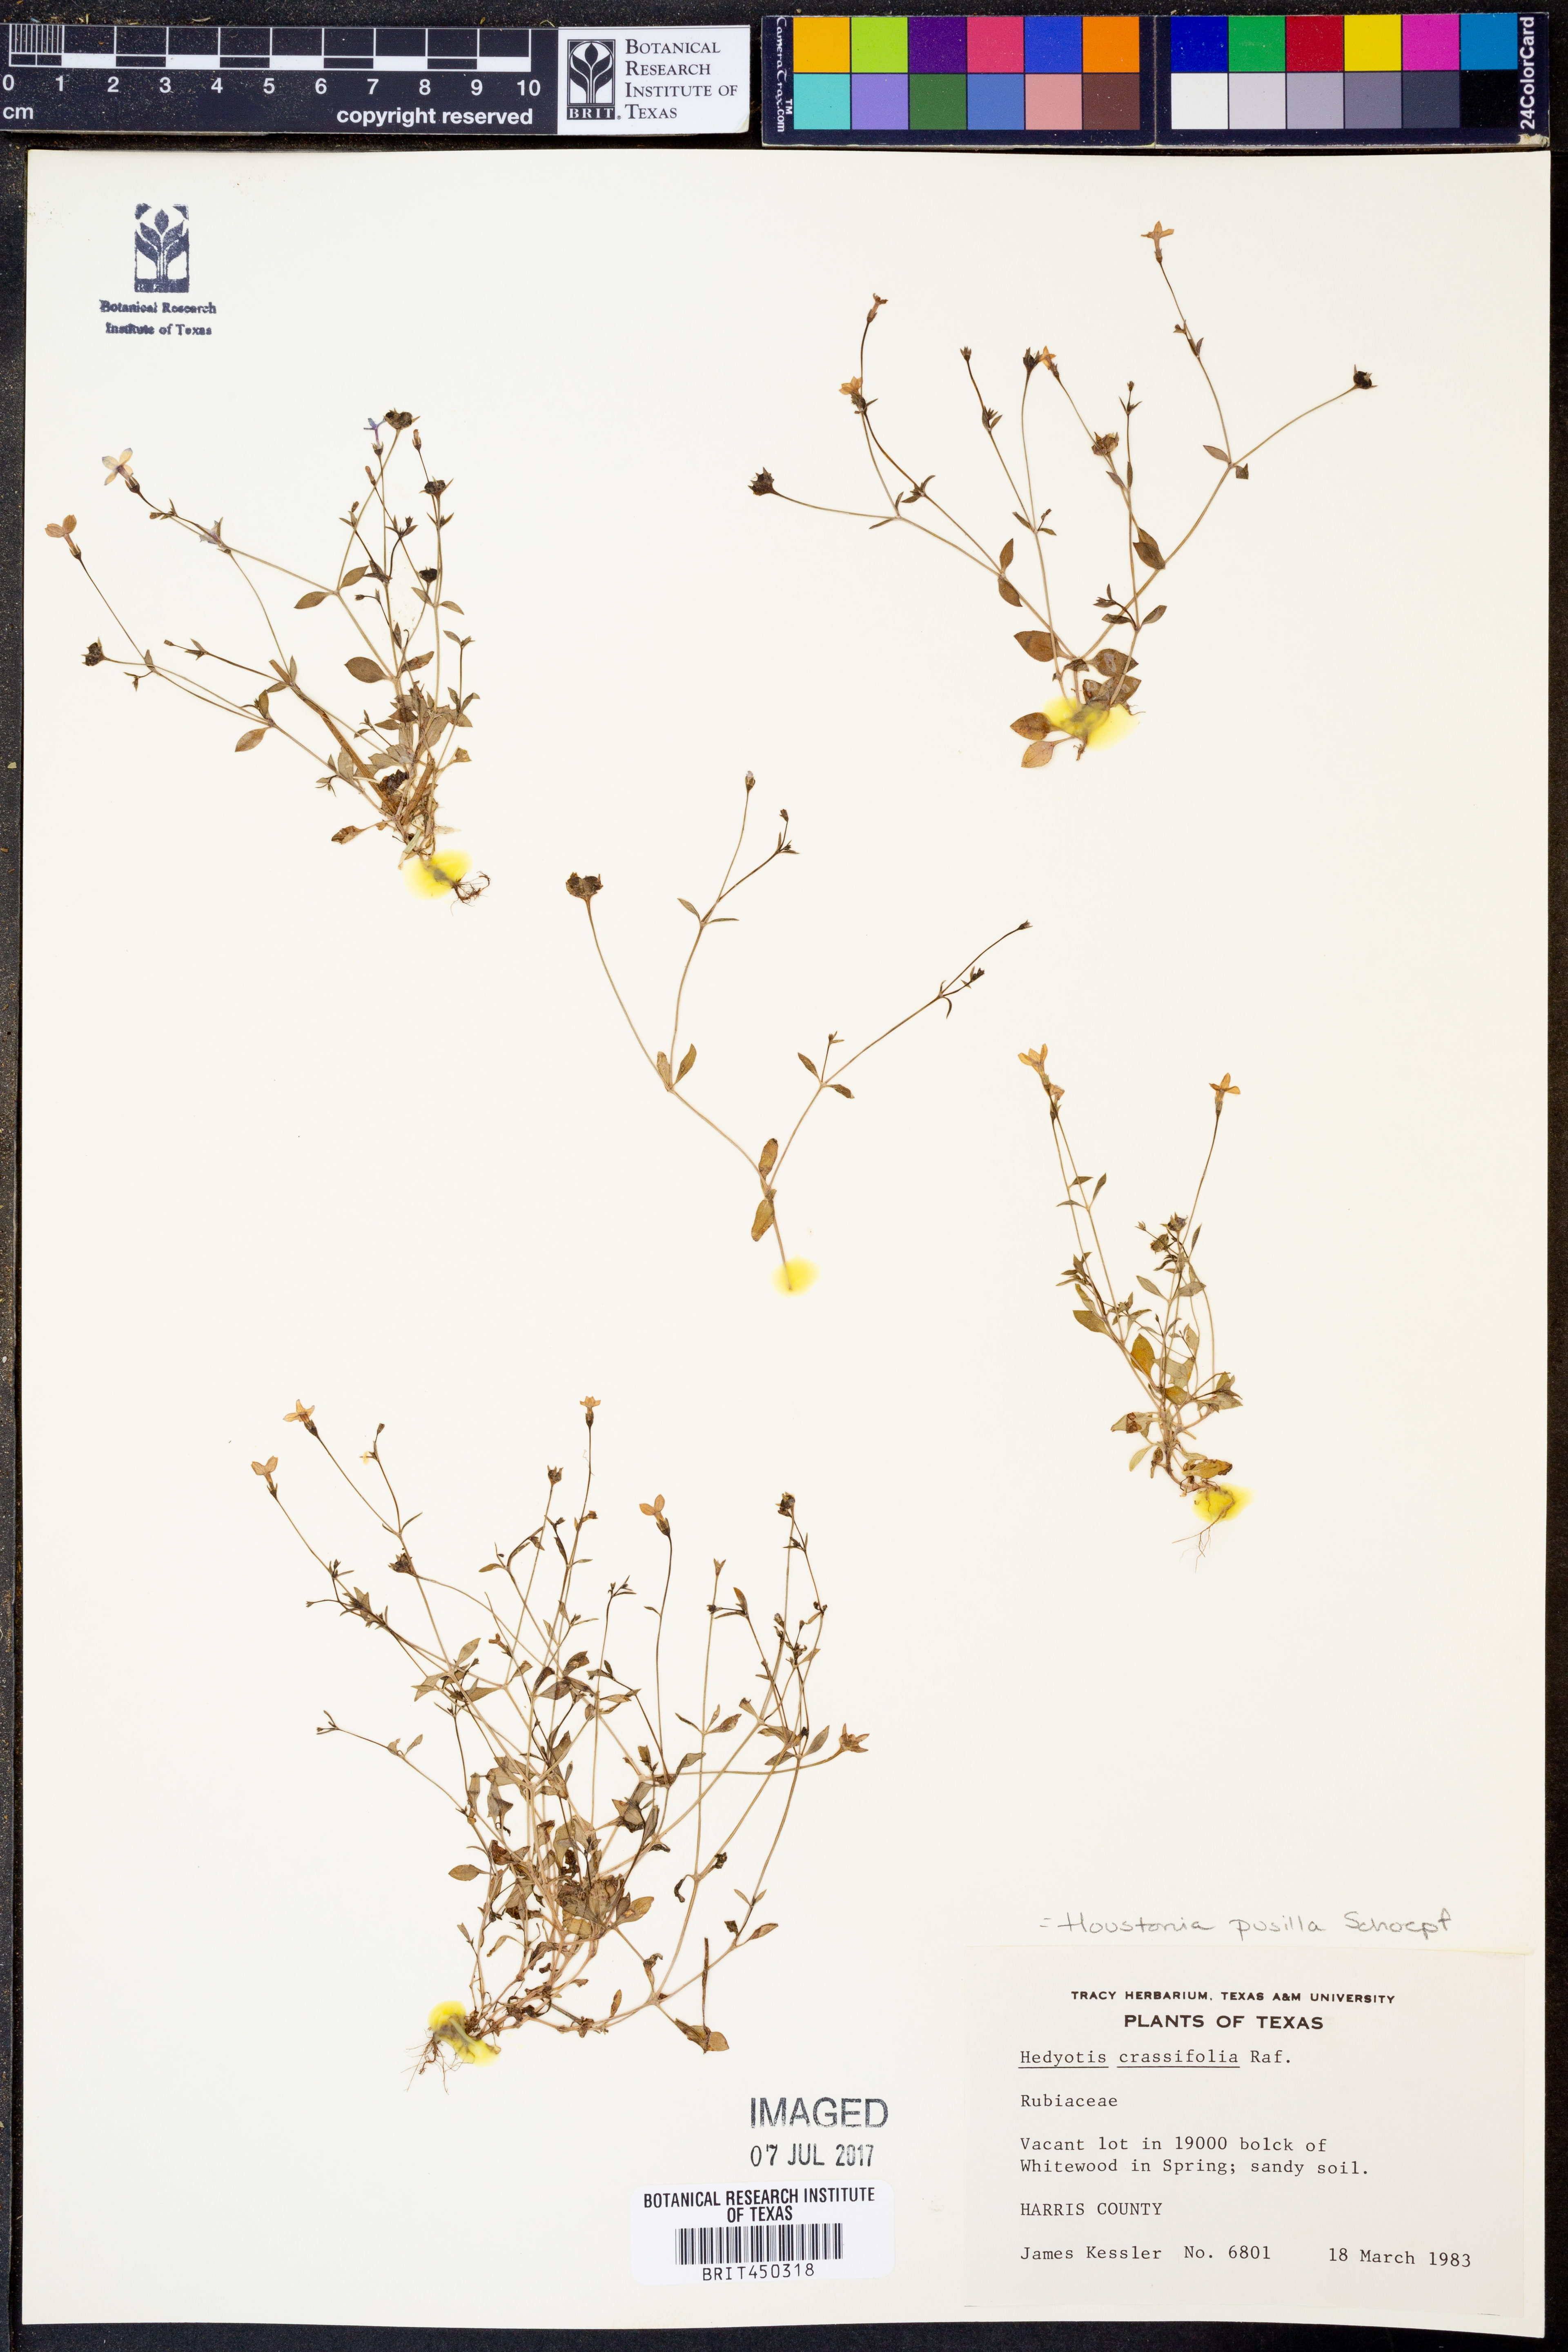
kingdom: Plantae
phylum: Tracheophyta
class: Magnoliopsida
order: Gentianales
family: Rubiaceae
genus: Houstonia
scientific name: Houstonia pusilla
